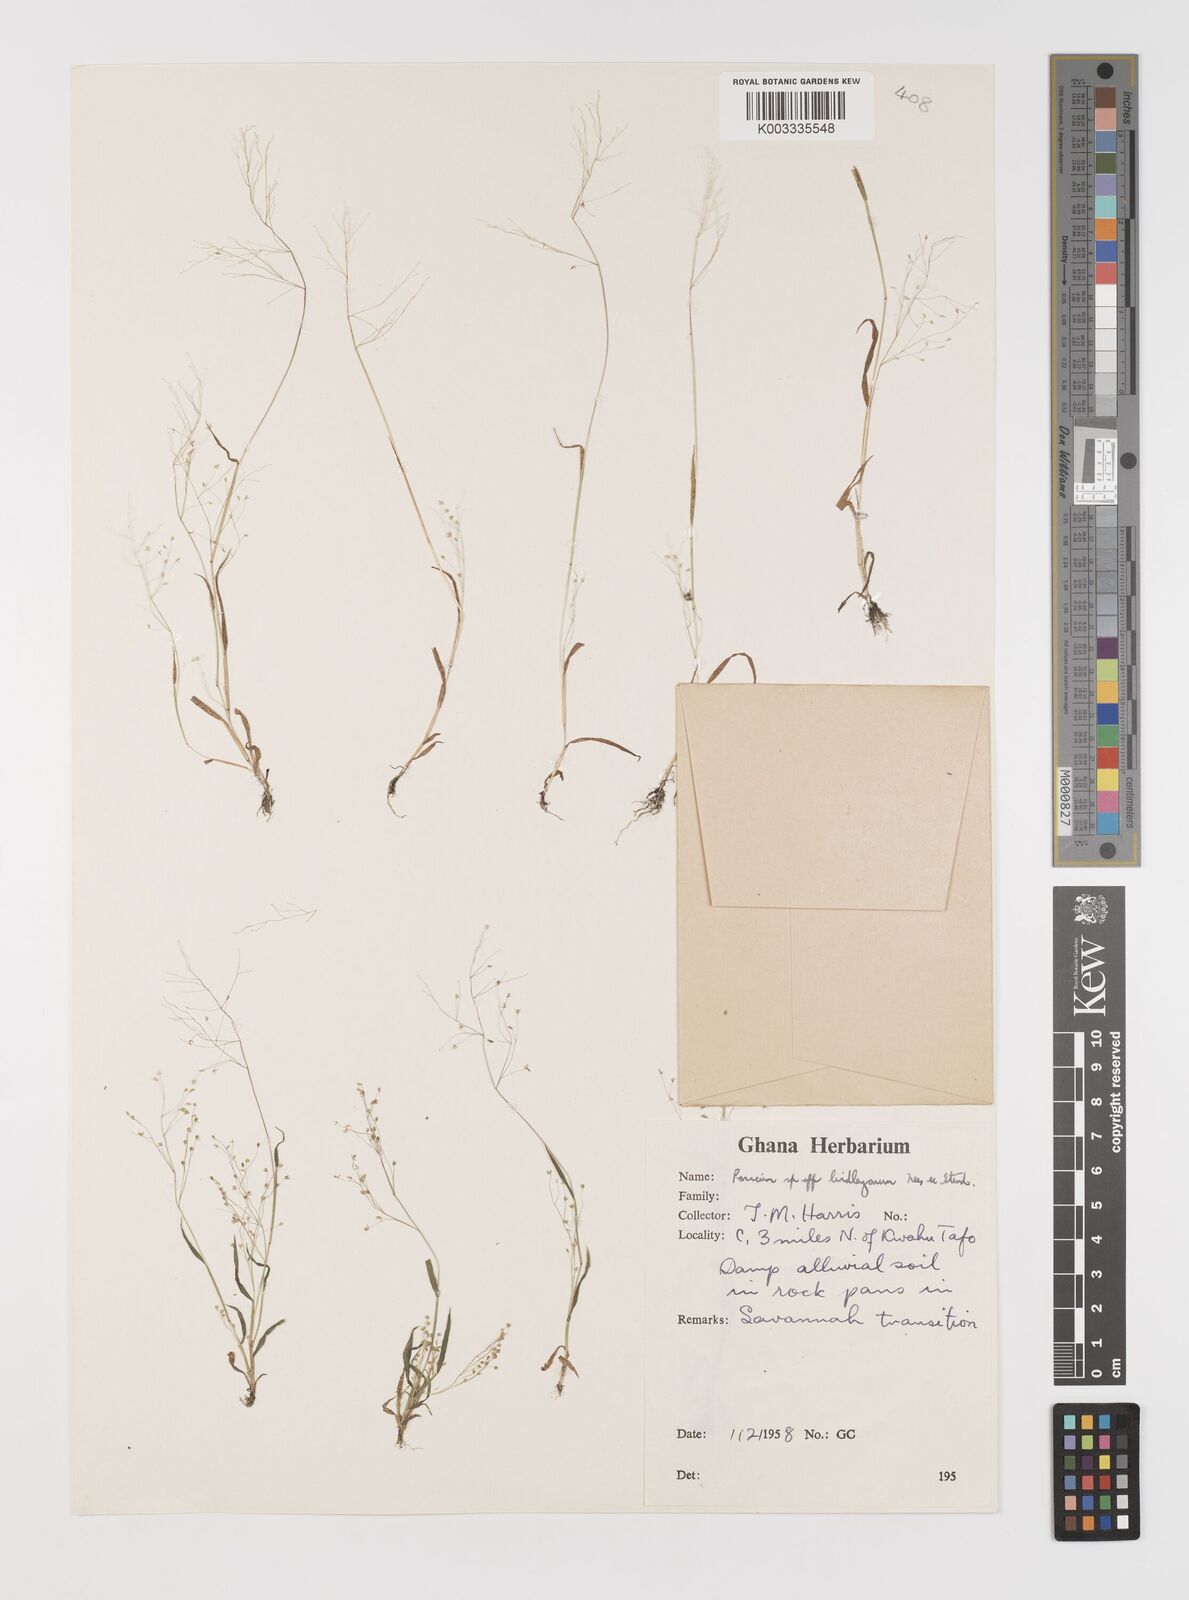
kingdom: Plantae
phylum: Tracheophyta
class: Liliopsida
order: Poales
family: Poaceae
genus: Trichanthecium
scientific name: Trichanthecium tenellum
